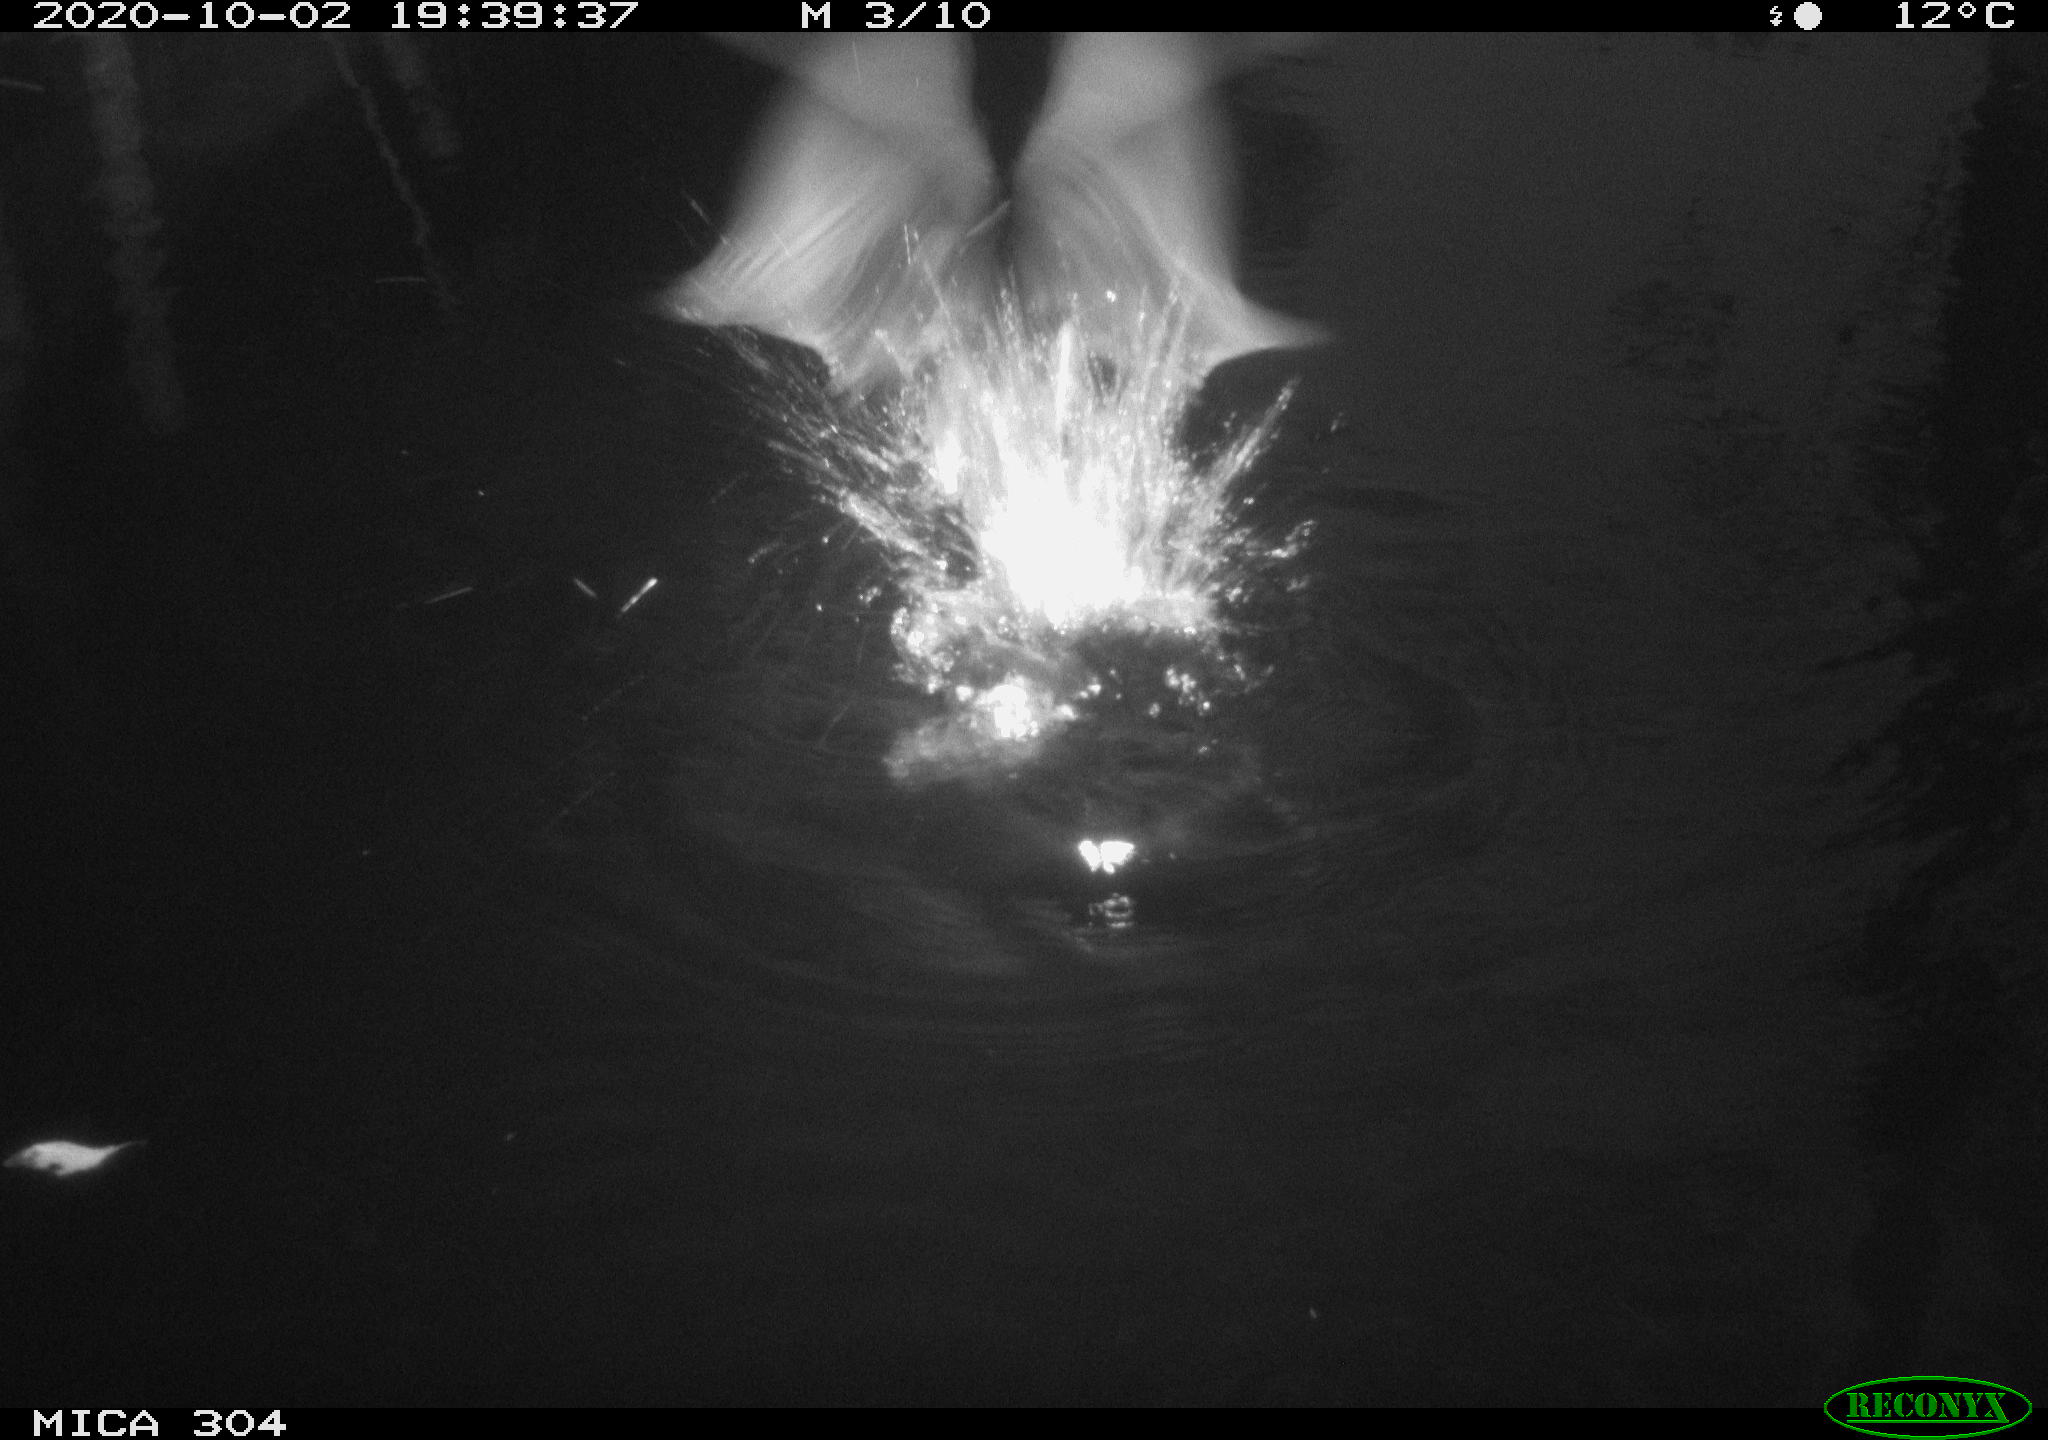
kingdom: Animalia
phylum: Chordata
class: Aves
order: Gruiformes
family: Rallidae
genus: Gallinula
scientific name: Gallinula chloropus
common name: Common moorhen
